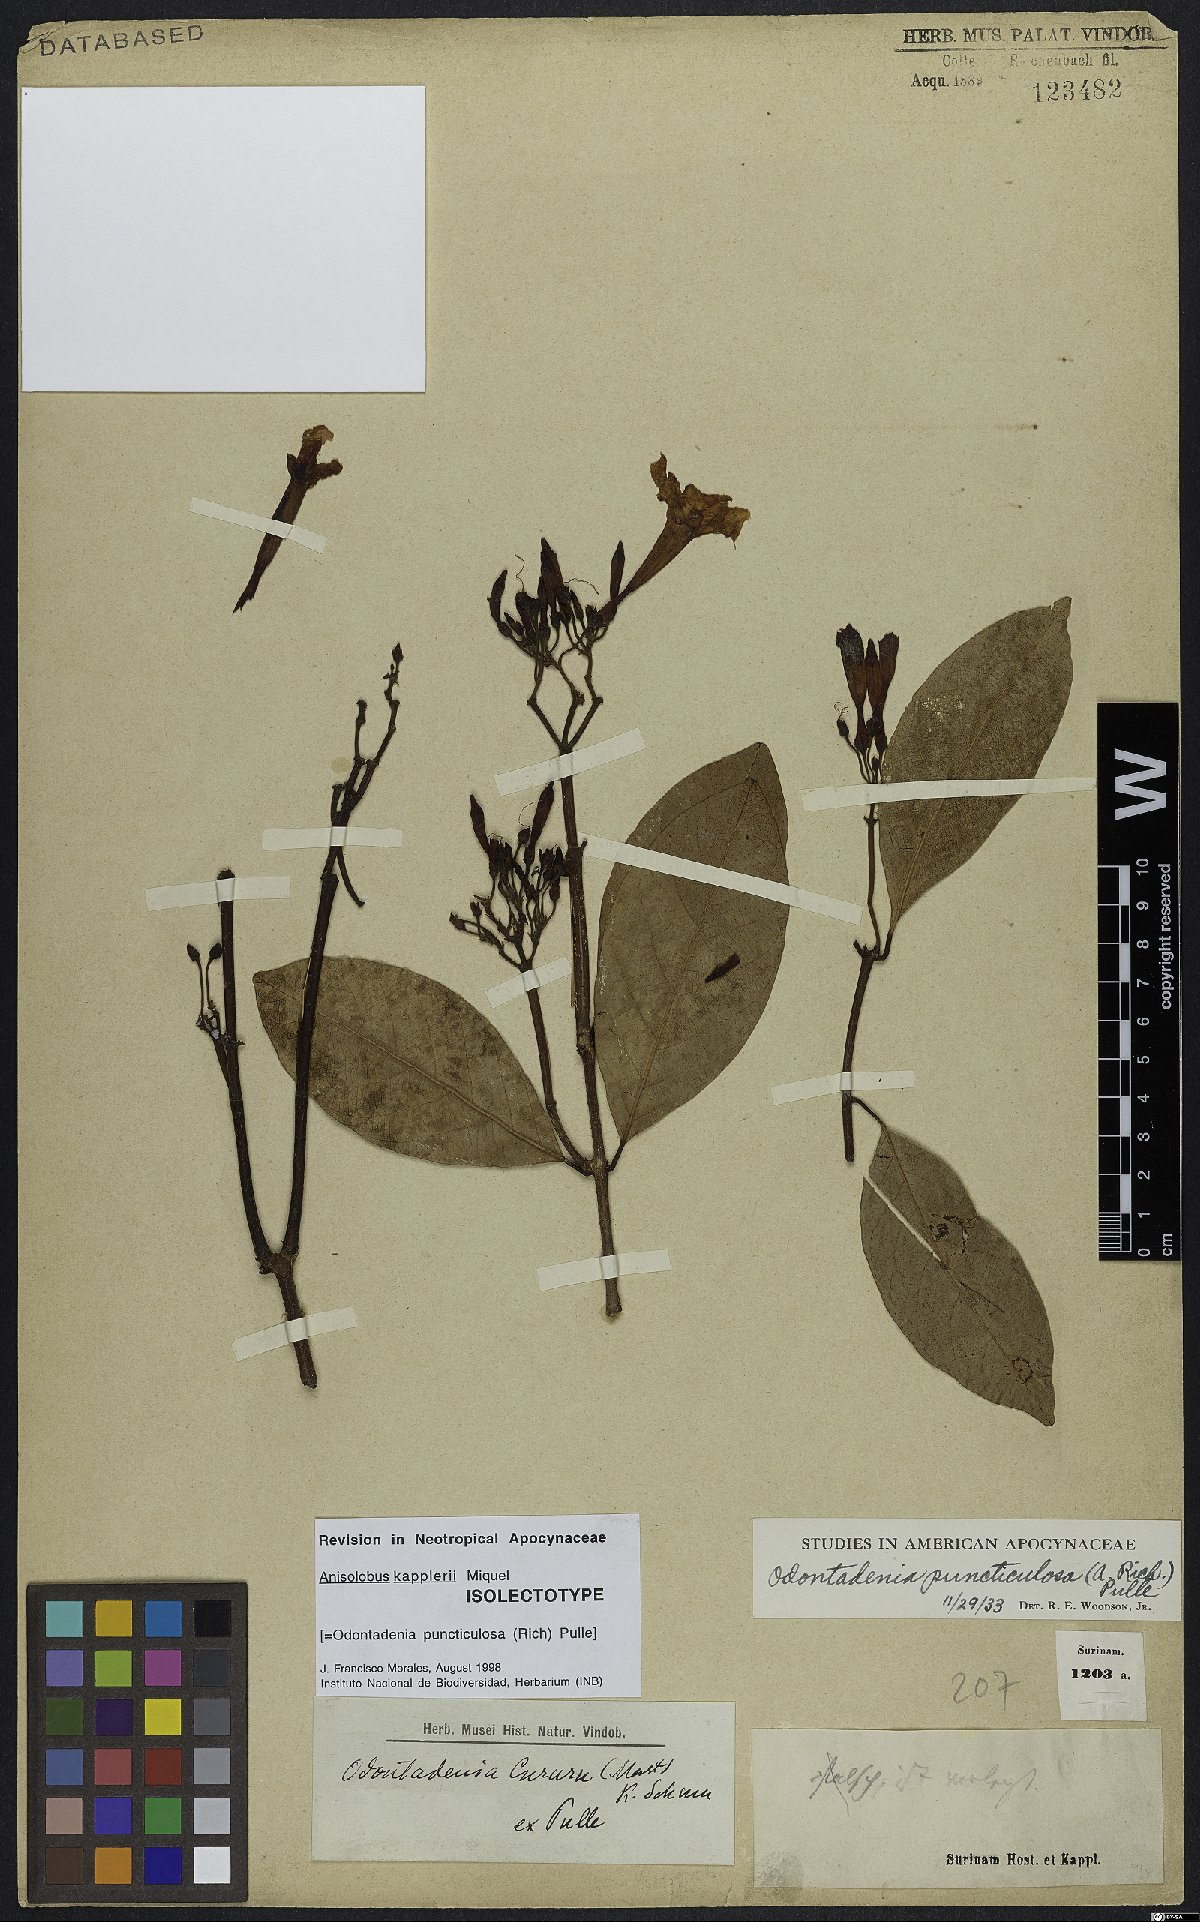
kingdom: Plantae
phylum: Tracheophyta
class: Magnoliopsida
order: Gentianales
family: Apocynaceae
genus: Odontadenia
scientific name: Odontadenia puncticulosa
